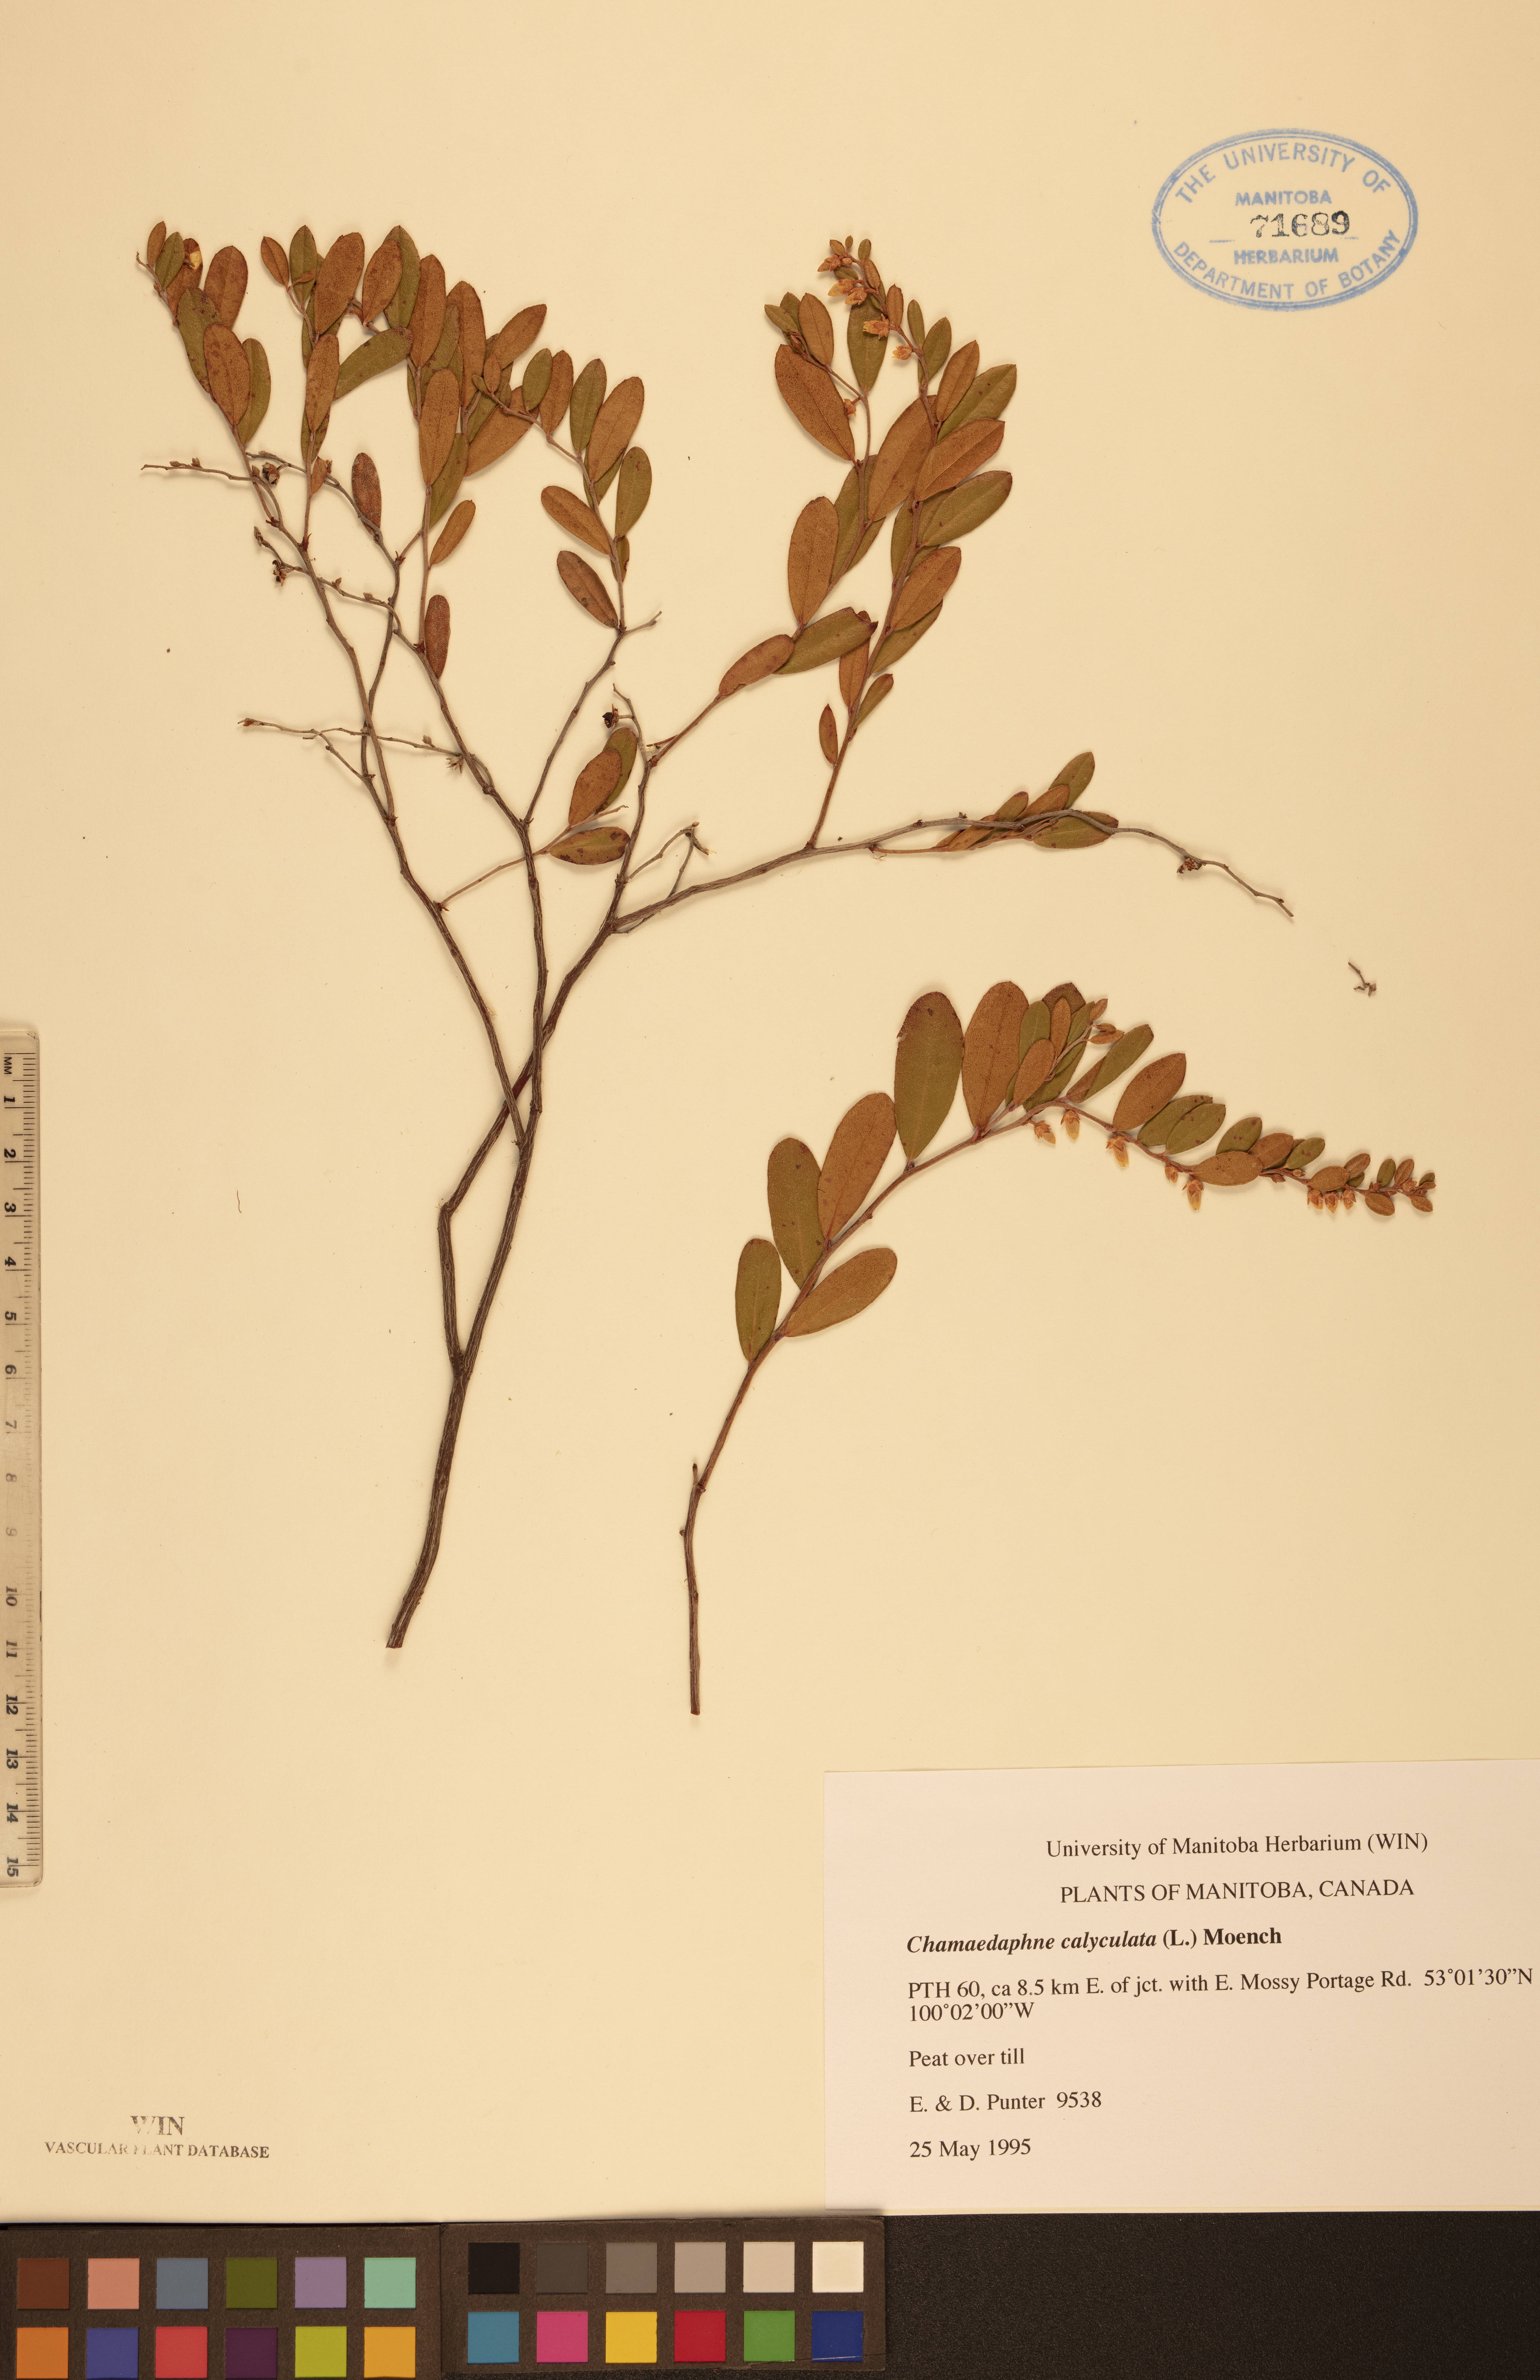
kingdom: Plantae
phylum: Tracheophyta
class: Magnoliopsida
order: Ericales
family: Ericaceae
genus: Chamaedaphne
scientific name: Chamaedaphne calyculata
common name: Leatherleaf
